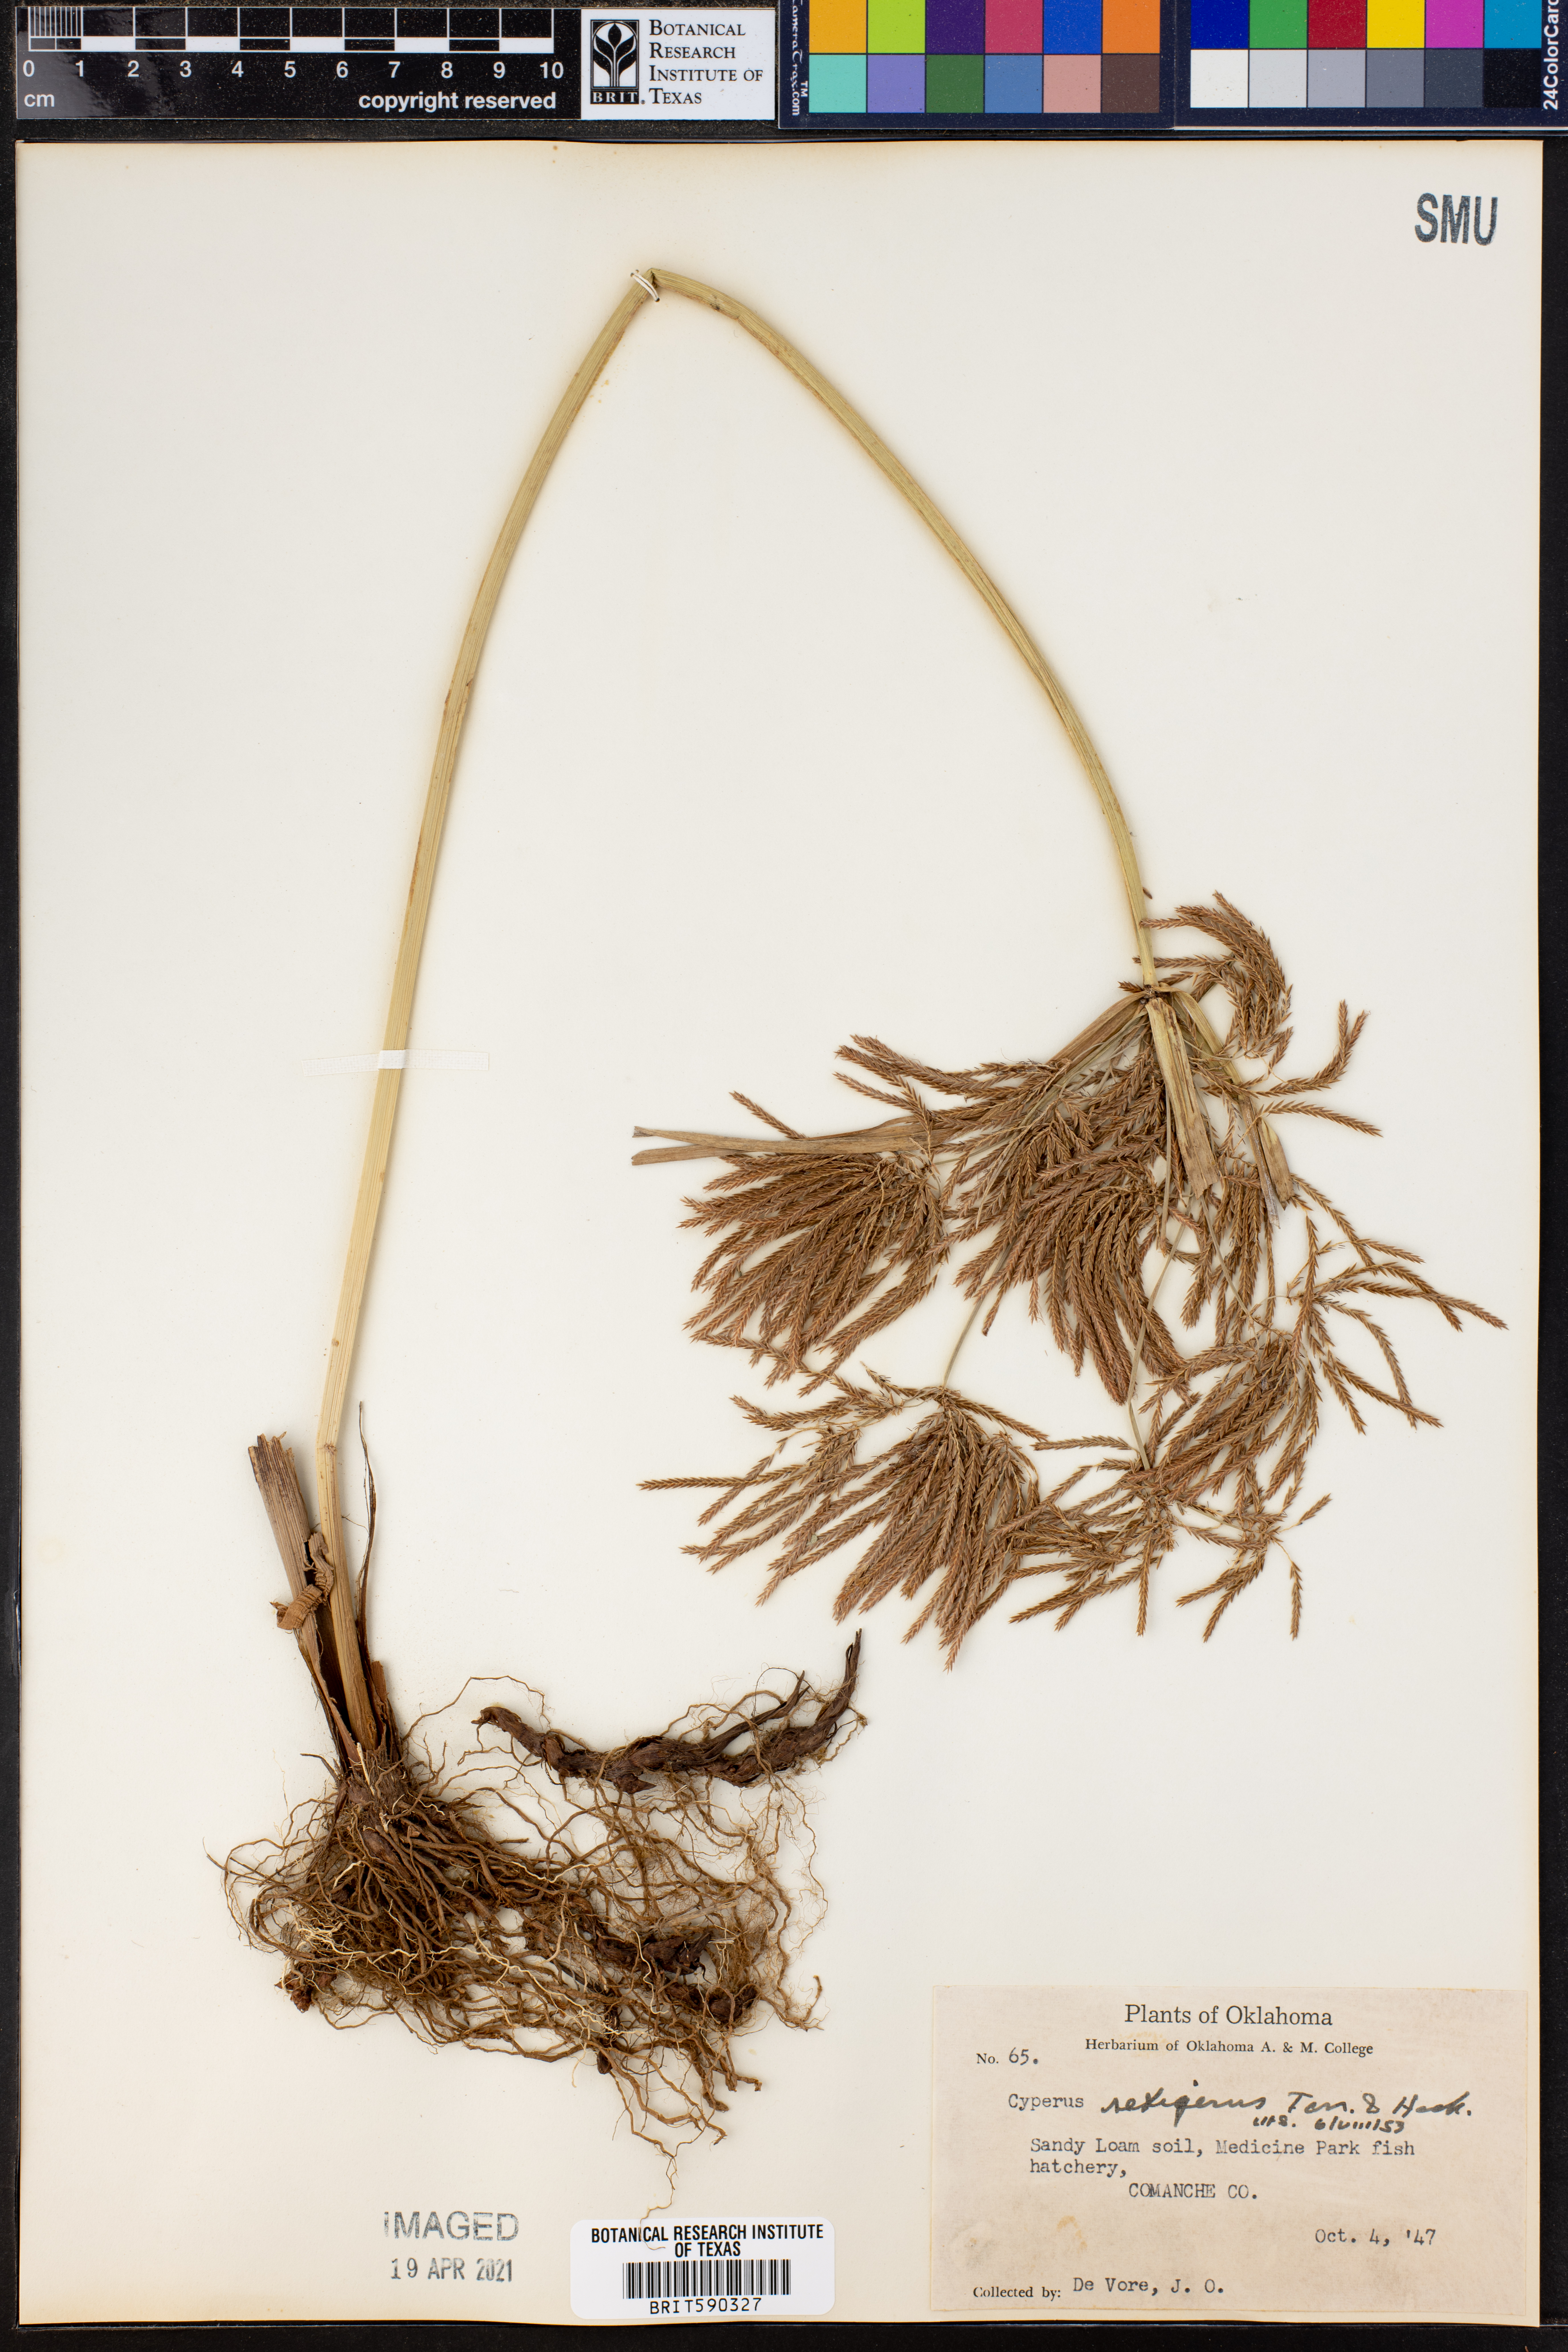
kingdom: Plantae
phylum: Tracheophyta
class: Liliopsida
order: Poales
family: Cyperaceae
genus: Cyperus
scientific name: Cyperus setigerus
